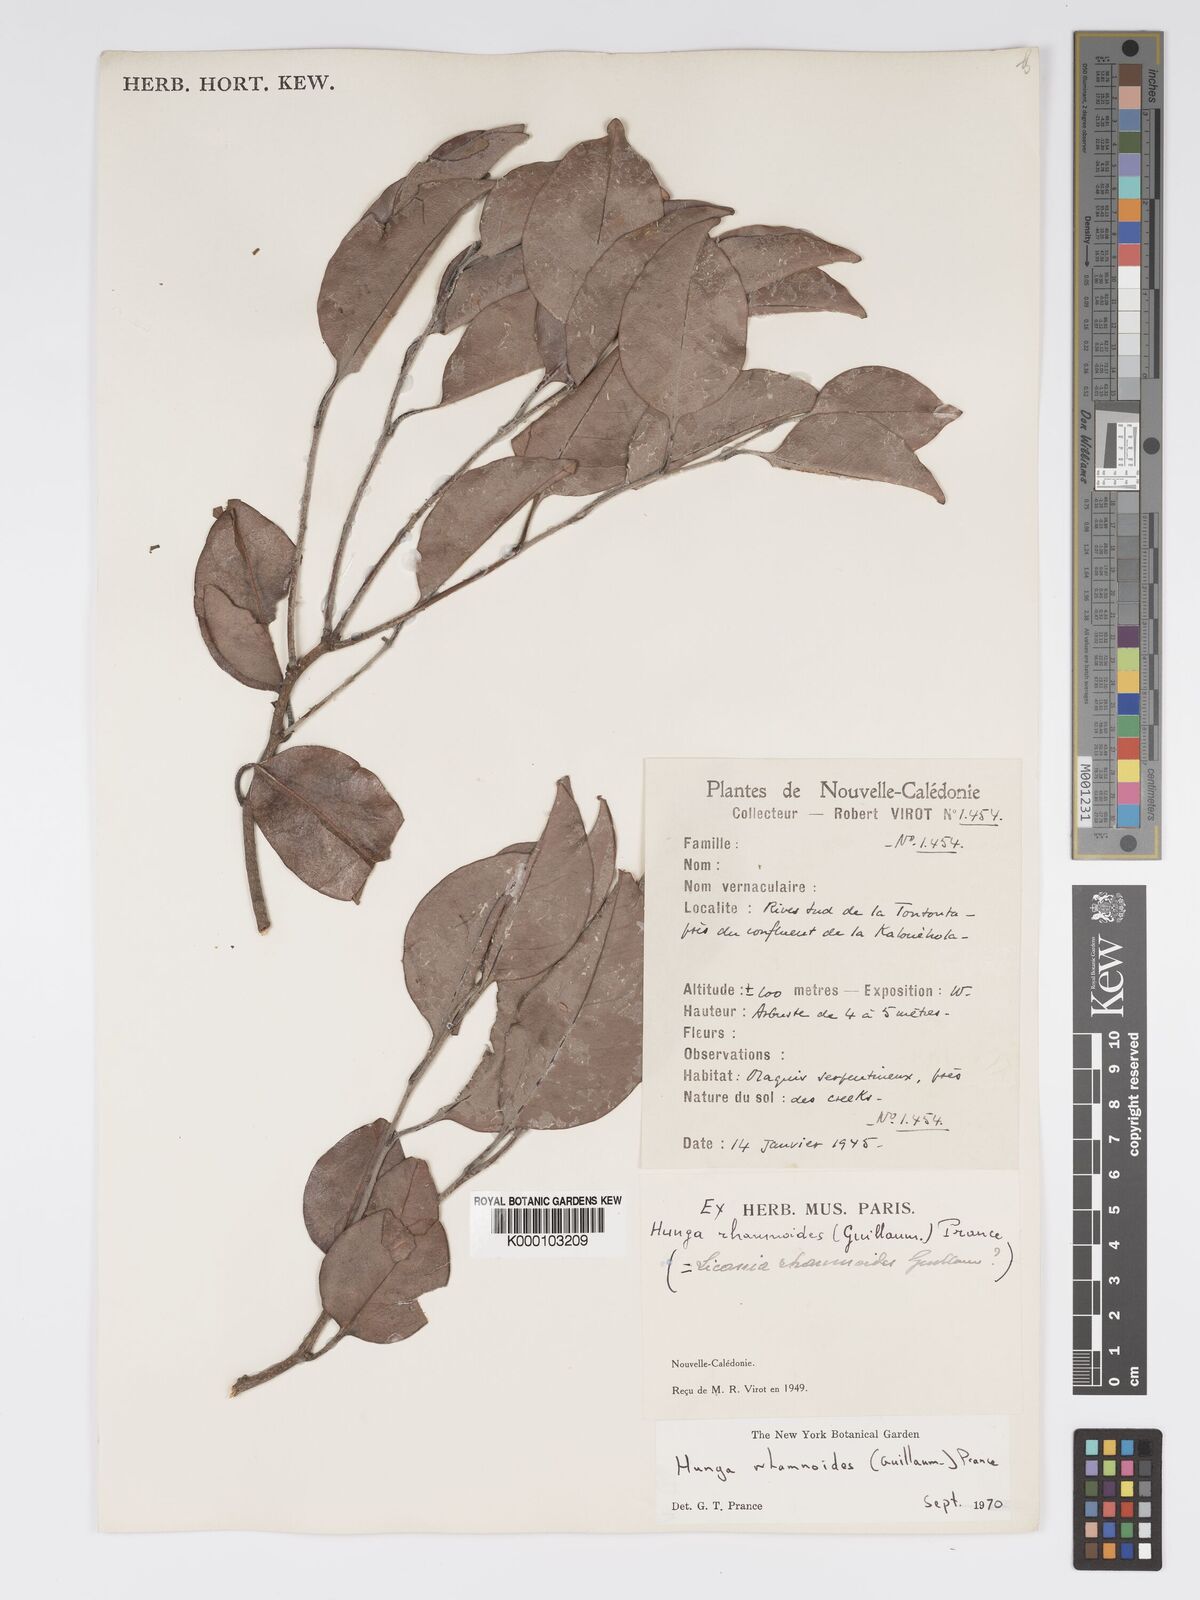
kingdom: Plantae
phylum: Tracheophyta
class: Magnoliopsida
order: Malpighiales
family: Chrysobalanaceae
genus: Hunga
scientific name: Hunga rhamnoides
